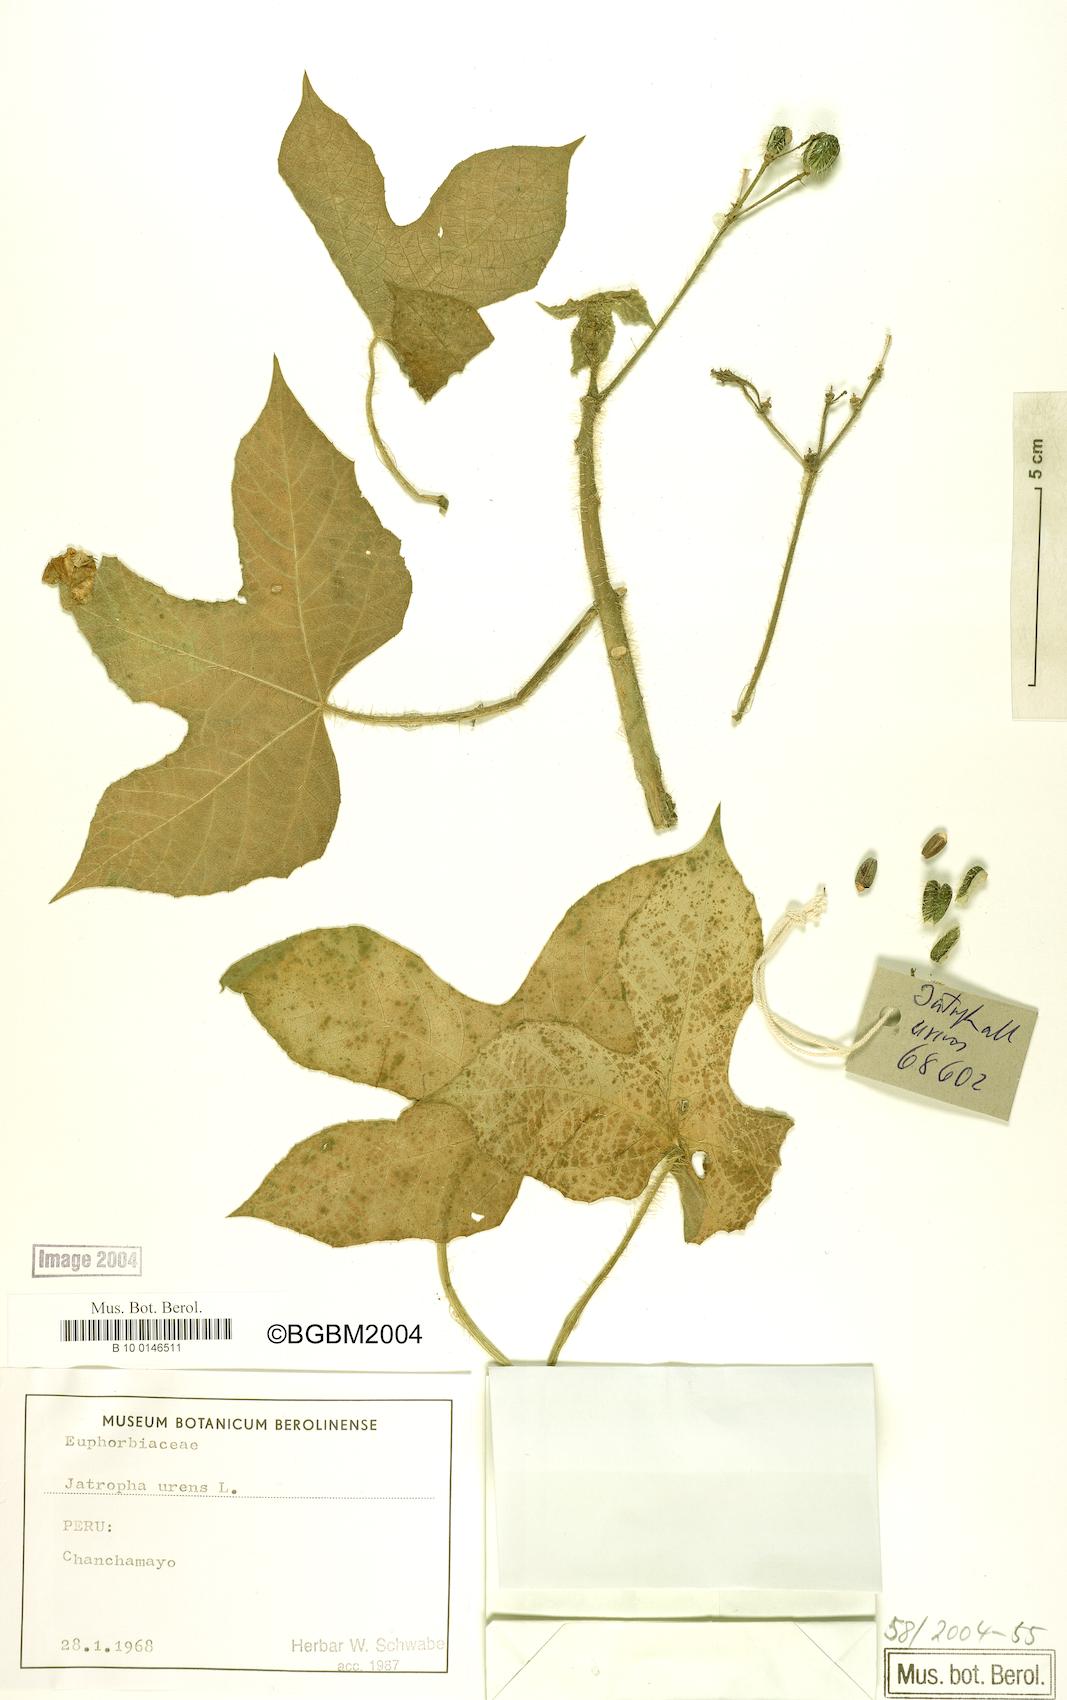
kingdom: Plantae
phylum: Tracheophyta
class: Magnoliopsida
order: Malpighiales
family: Euphorbiaceae
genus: Cnidoscolus
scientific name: Cnidoscolus urens
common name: Bull-nettle
